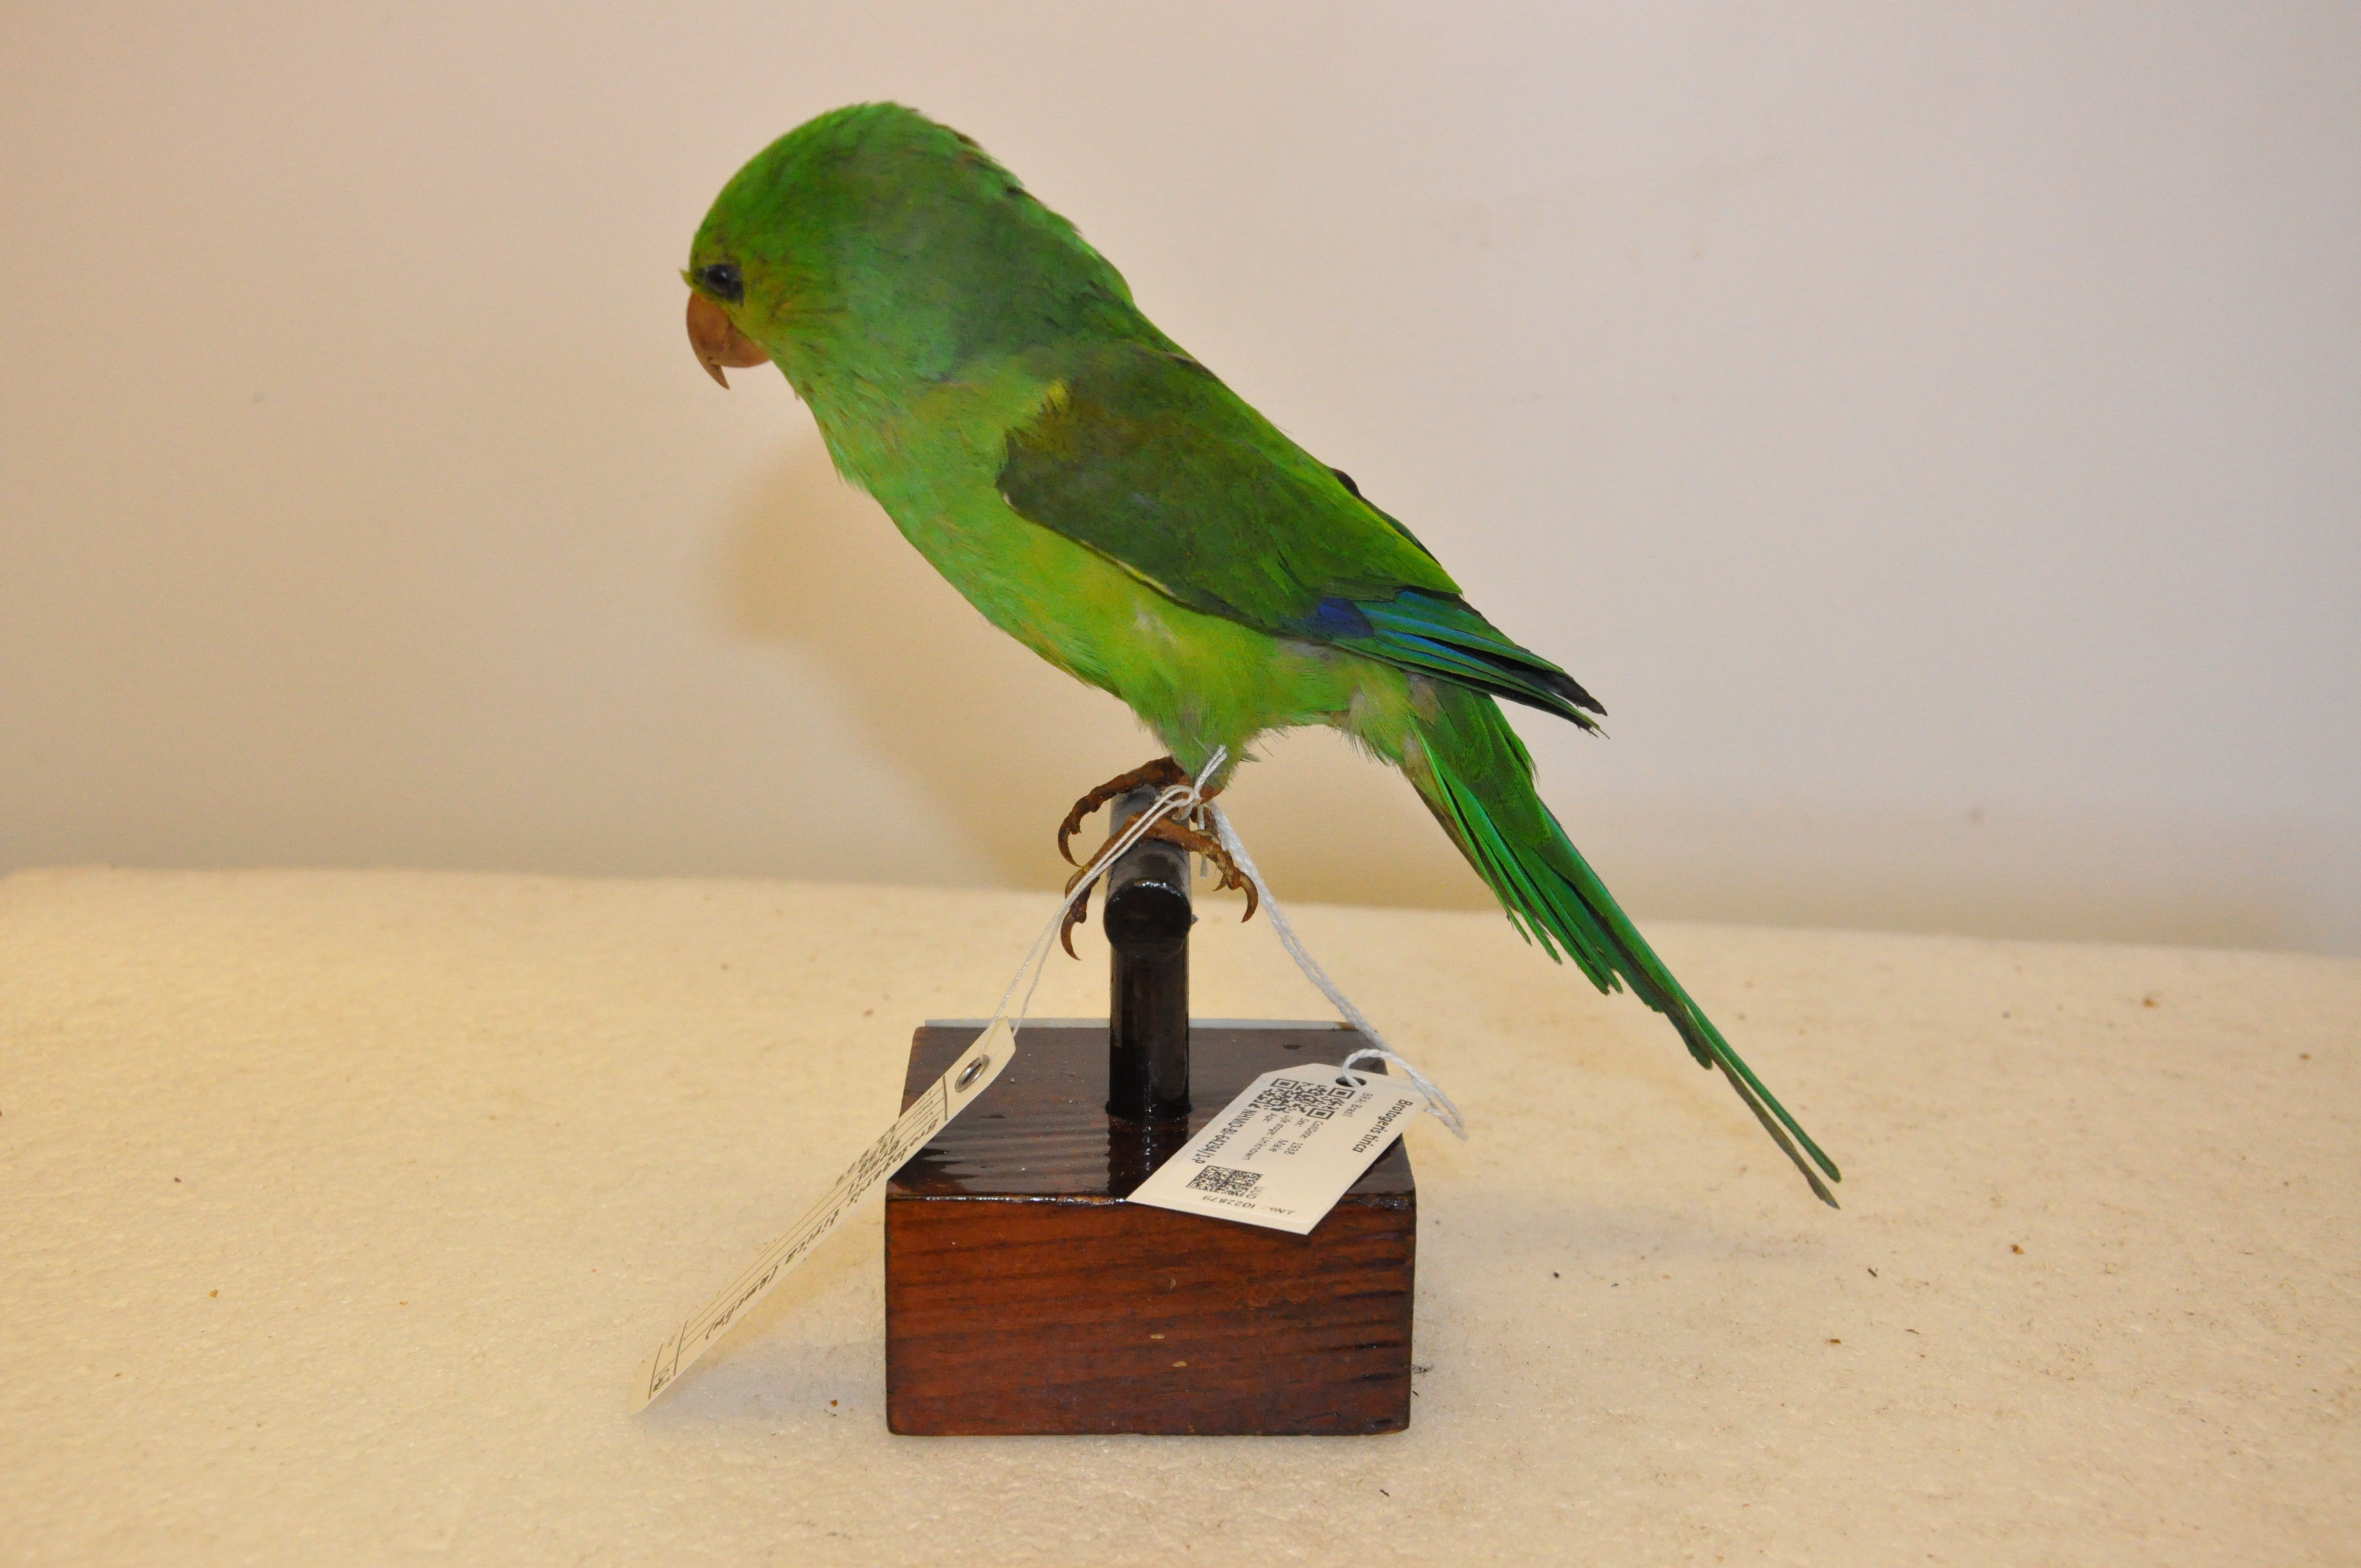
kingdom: Animalia
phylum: Chordata
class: Aves
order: Psittaciformes
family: Psittacidae
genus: Brotogeris
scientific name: Brotogeris tirica
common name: Plain parakeet
